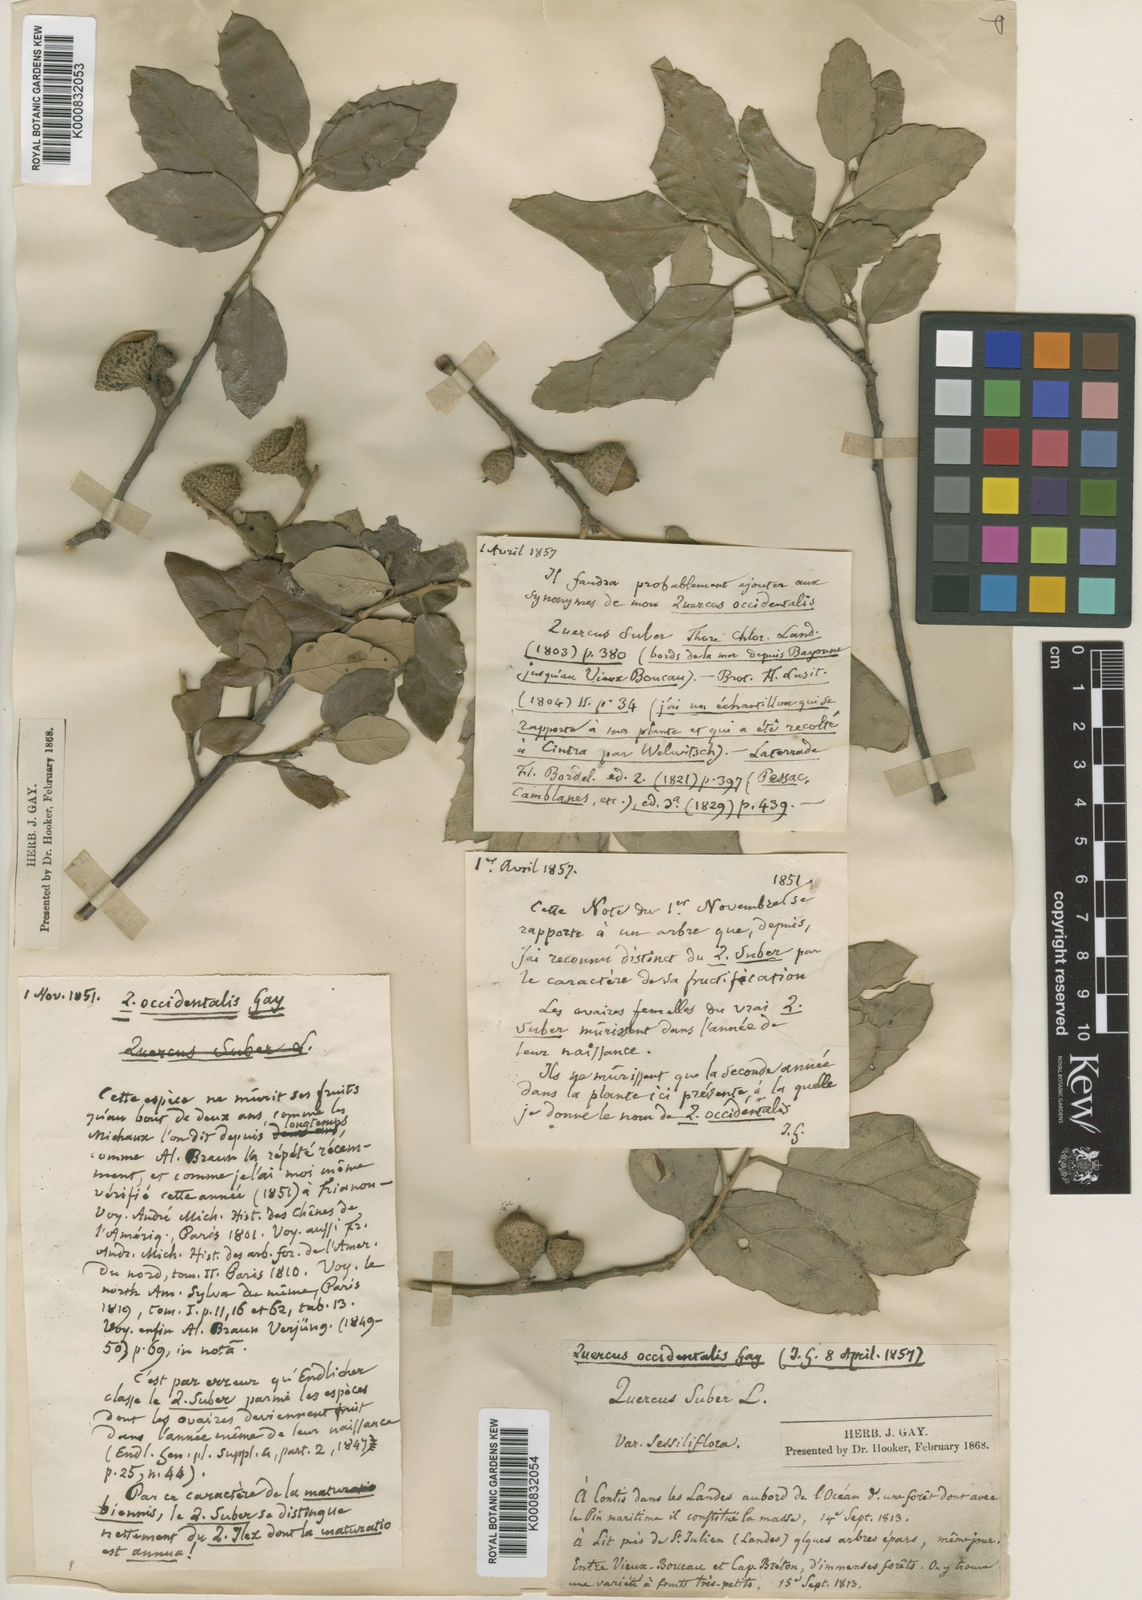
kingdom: Plantae
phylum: Tracheophyta
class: Magnoliopsida
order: Fagales
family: Fagaceae
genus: Quercus
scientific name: Quercus suber
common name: Cork oak
